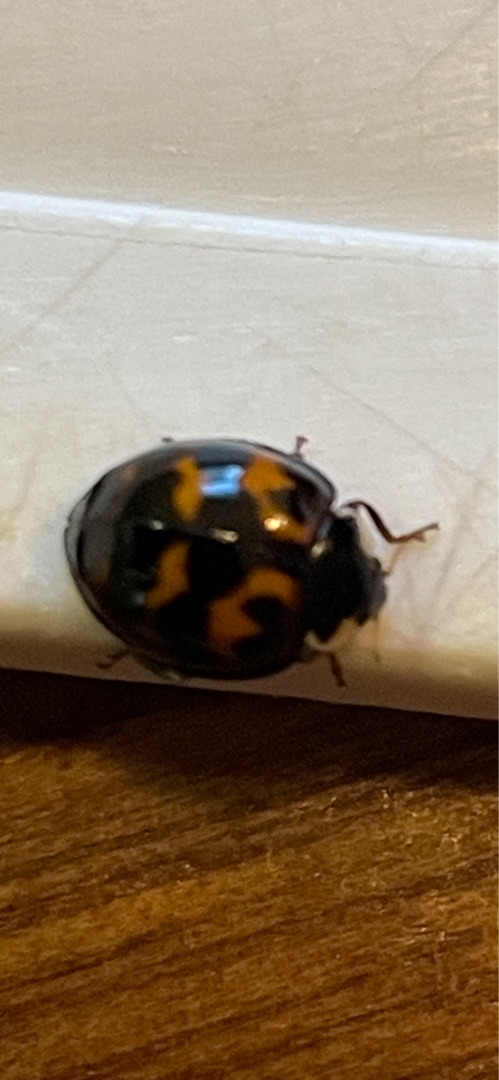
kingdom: Animalia
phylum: Arthropoda
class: Insecta
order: Coleoptera
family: Coccinellidae
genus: Harmonia
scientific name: Harmonia axyridis
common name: Harlekinmariehøne
